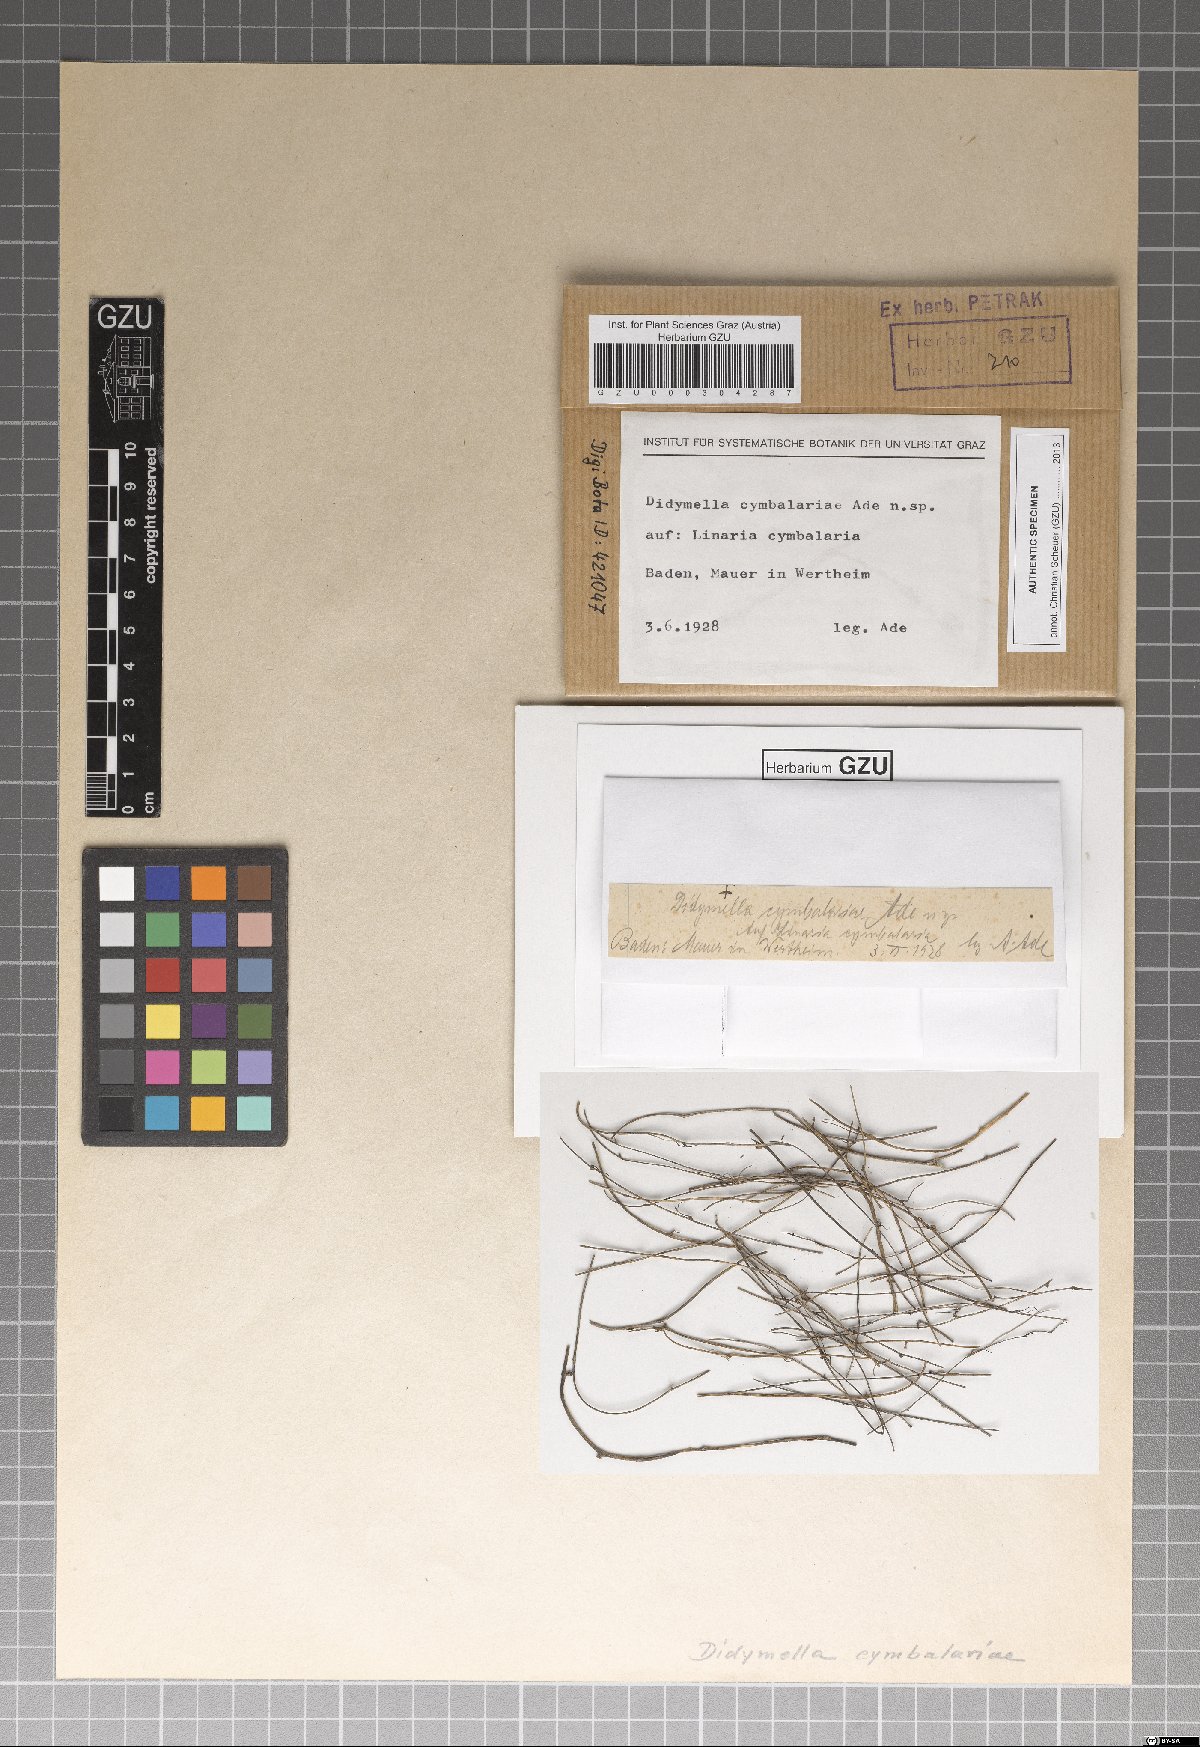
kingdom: Fungi
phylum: Ascomycota
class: Dothideomycetes
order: Pleosporales
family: Didymellaceae
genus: Didymella
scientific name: Didymella cymbalariae
